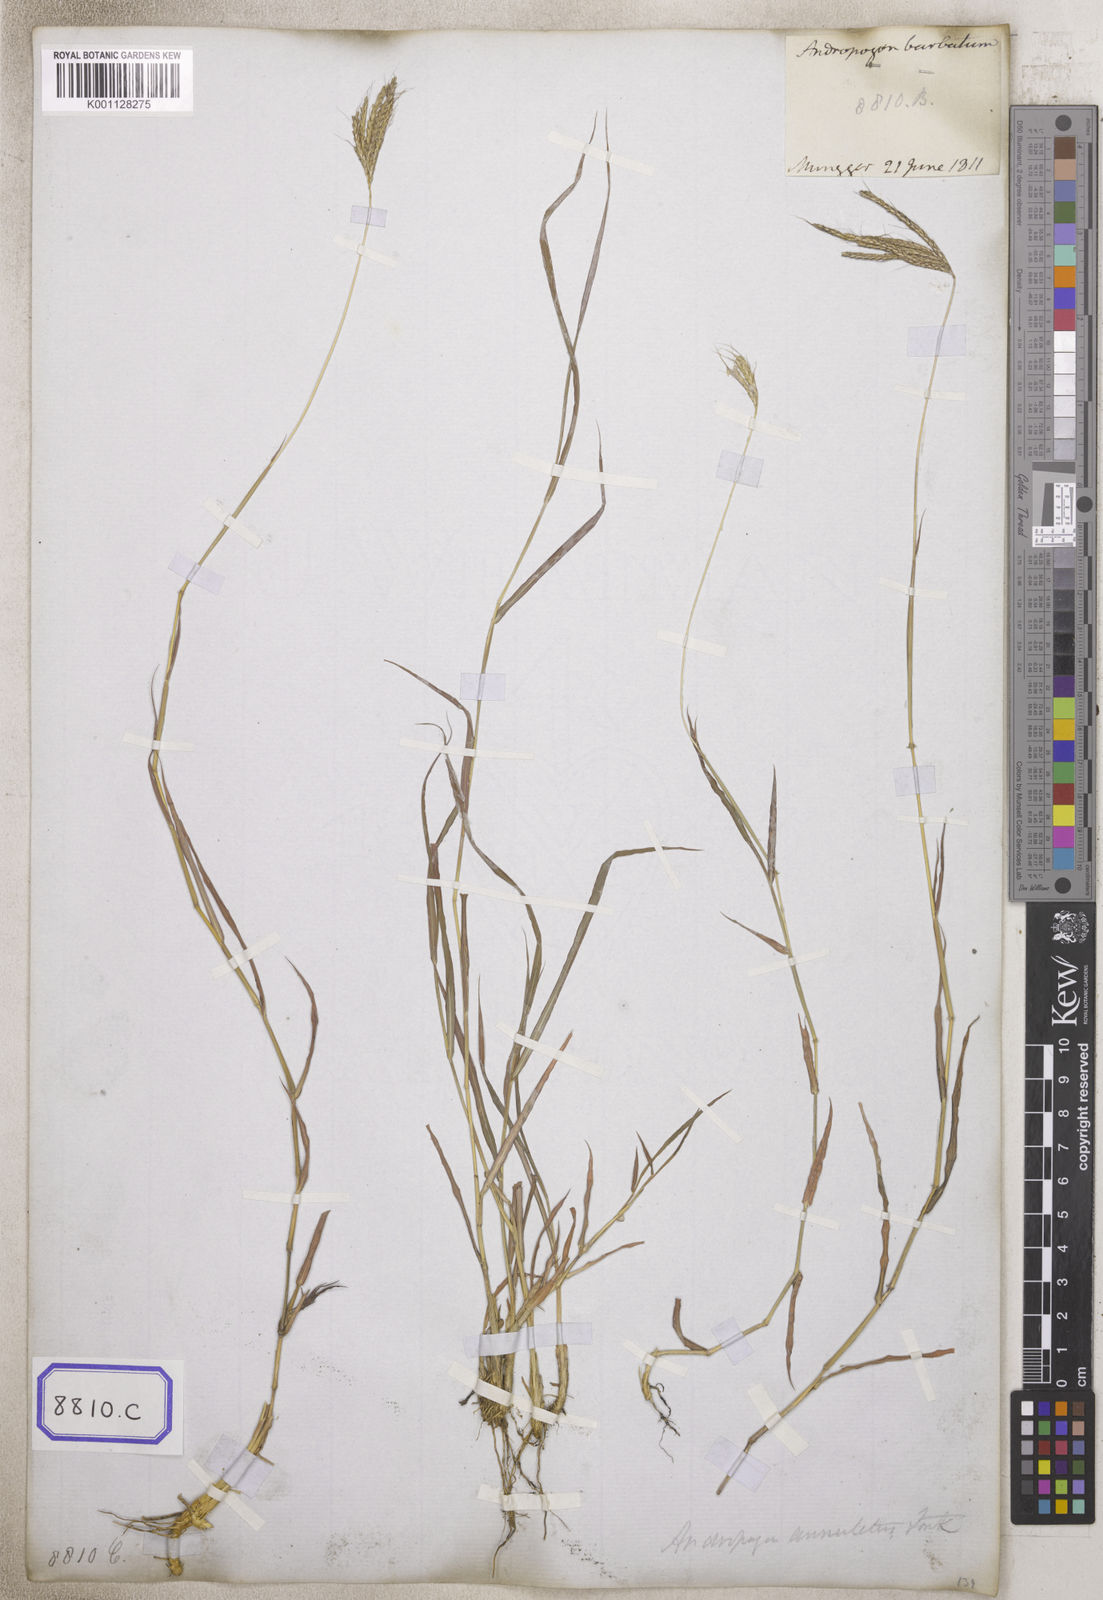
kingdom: Plantae
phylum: Tracheophyta
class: Liliopsida
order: Poales
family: Poaceae
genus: Andropogon
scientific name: Andropogon
